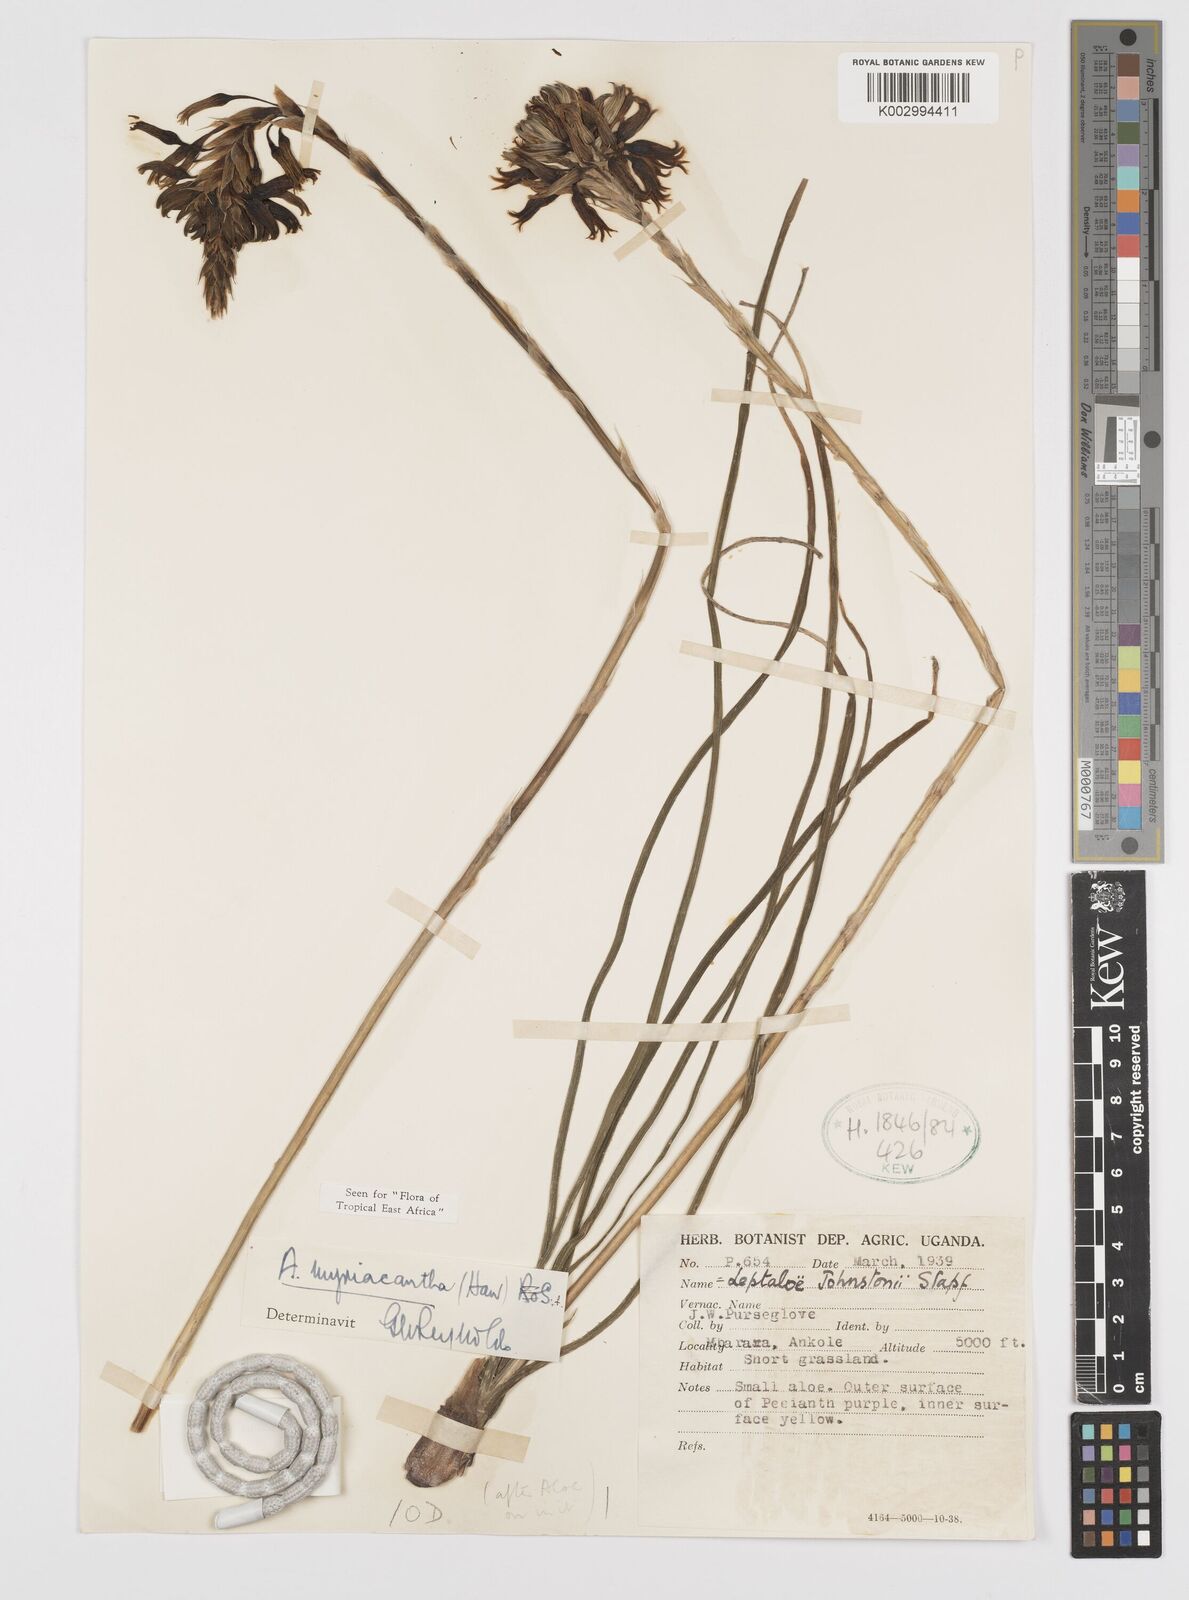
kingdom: Plantae
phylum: Tracheophyta
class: Liliopsida
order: Asparagales
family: Asphodelaceae
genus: Aloe
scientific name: Aloe myriacantha
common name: Grass aloe
